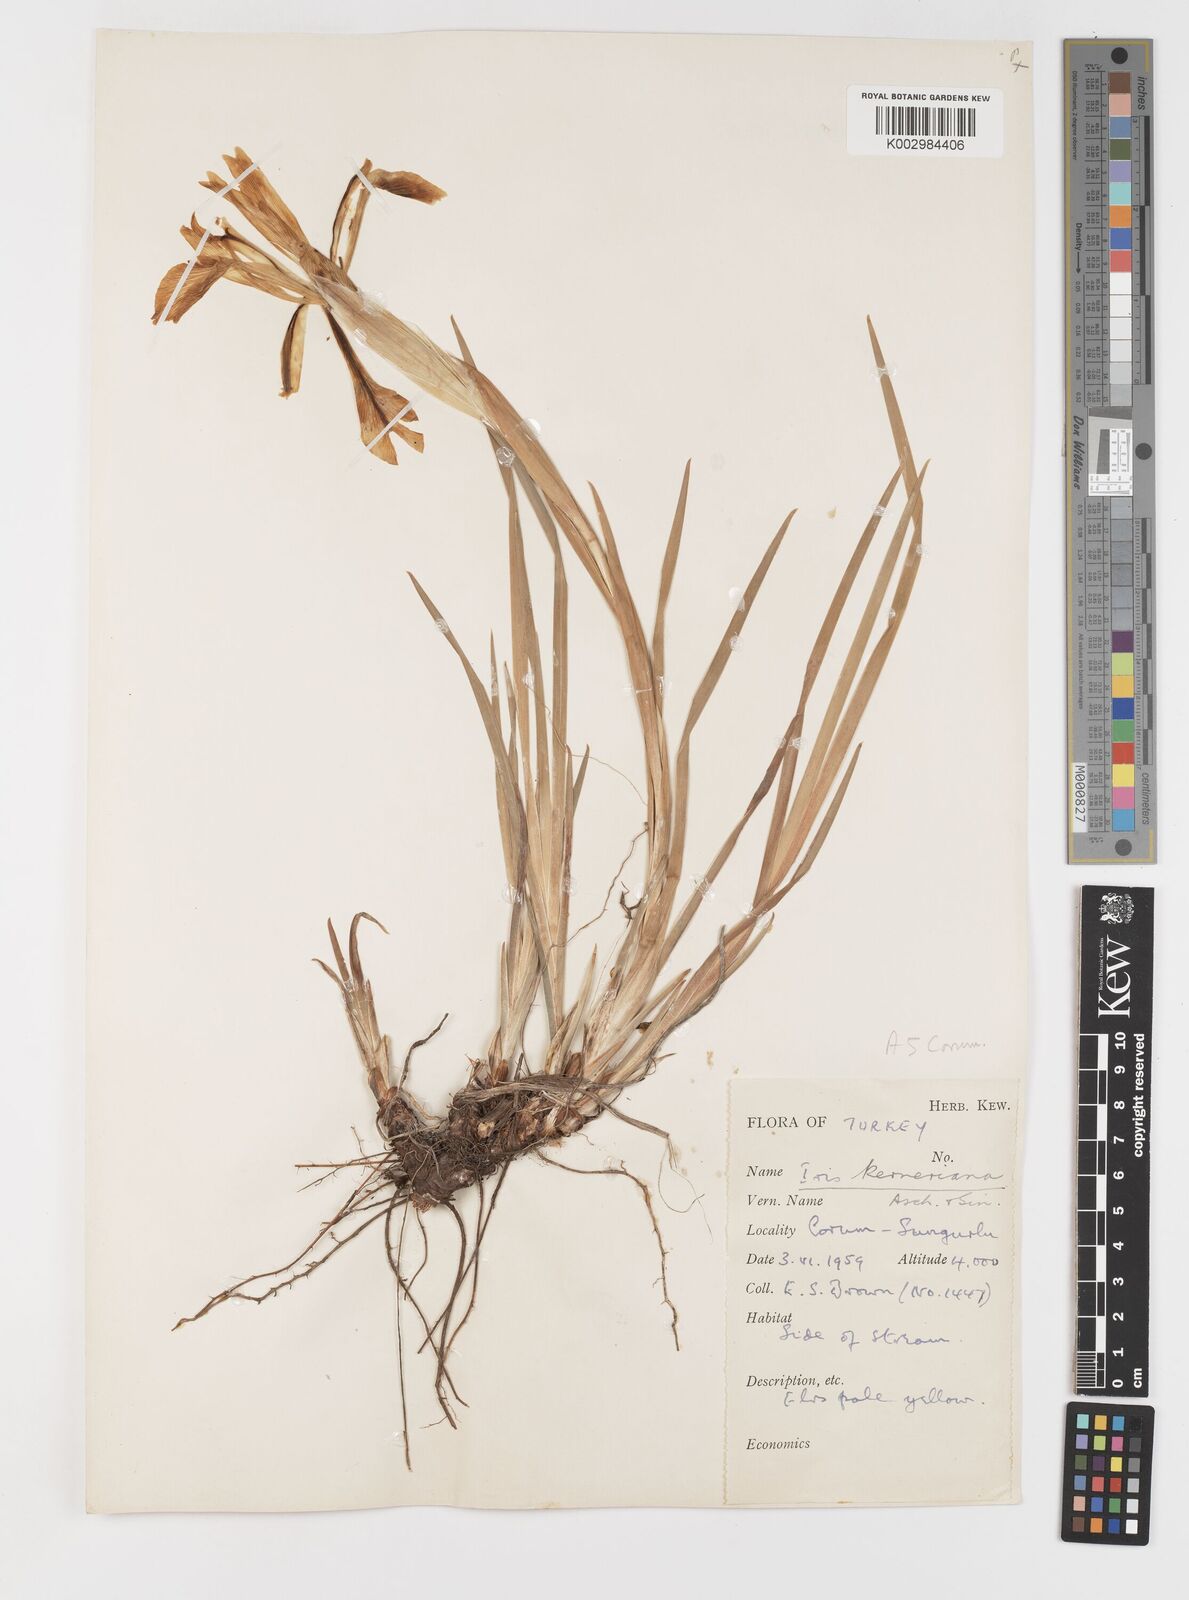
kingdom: Plantae
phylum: Tracheophyta
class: Liliopsida
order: Asparagales
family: Iridaceae
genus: Iris
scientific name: Iris haussknechtii
